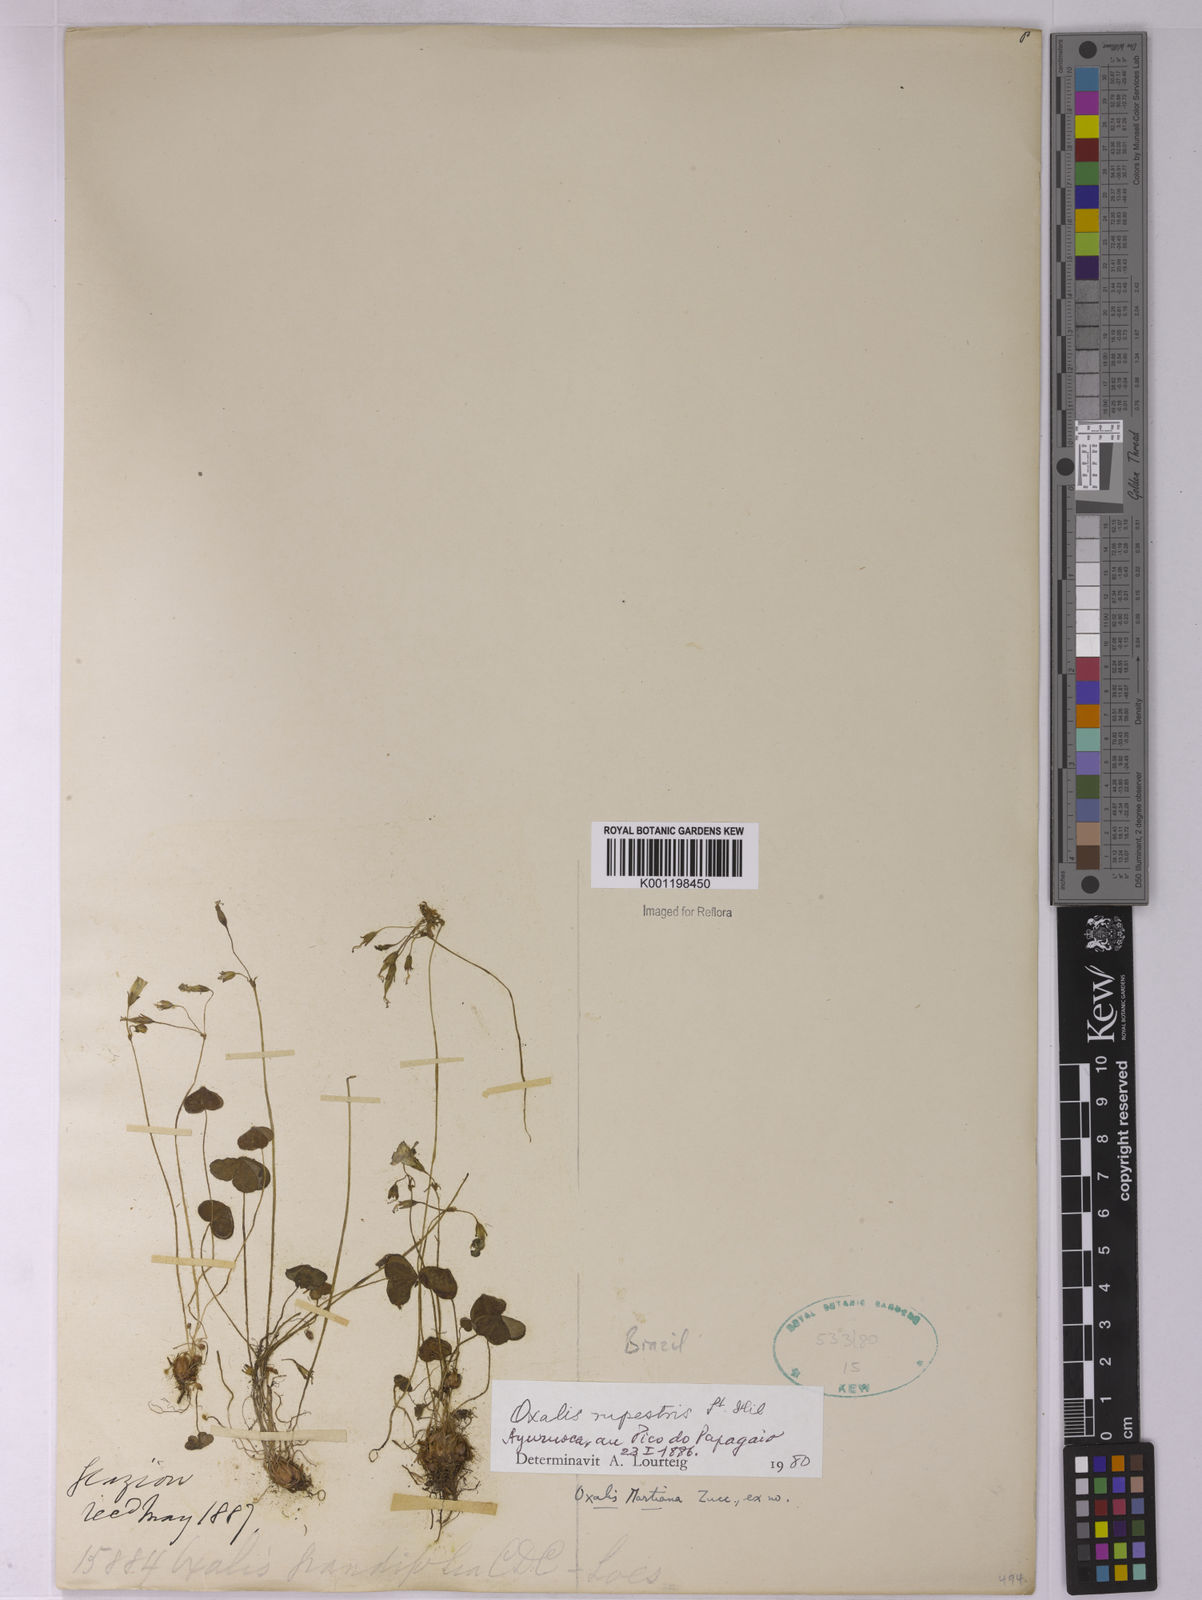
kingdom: Plantae
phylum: Tracheophyta
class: Magnoliopsida
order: Oxalidales
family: Oxalidaceae
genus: Oxalis
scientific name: Oxalis rupestris
